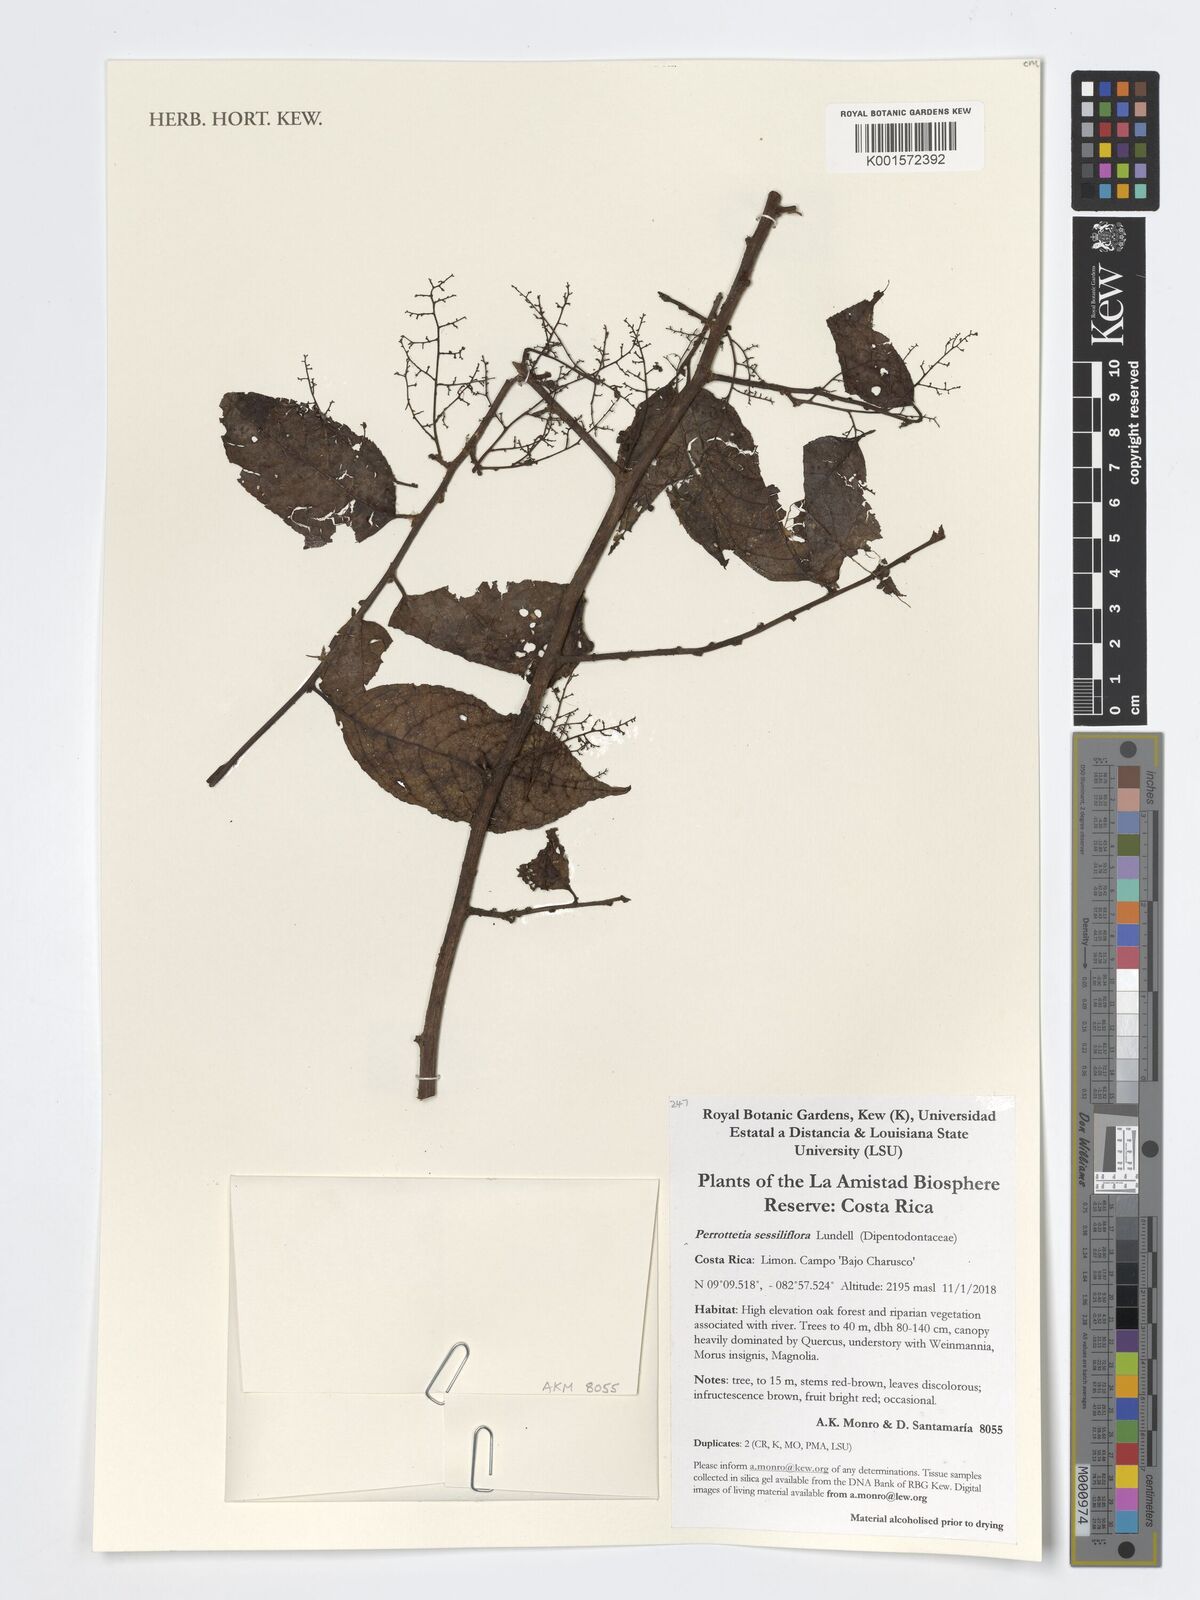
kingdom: Plantae
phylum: Tracheophyta
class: Magnoliopsida
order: Huerteales
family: Dipentodontaceae
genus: Perrottetia
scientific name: Perrottetia sessiliflora
